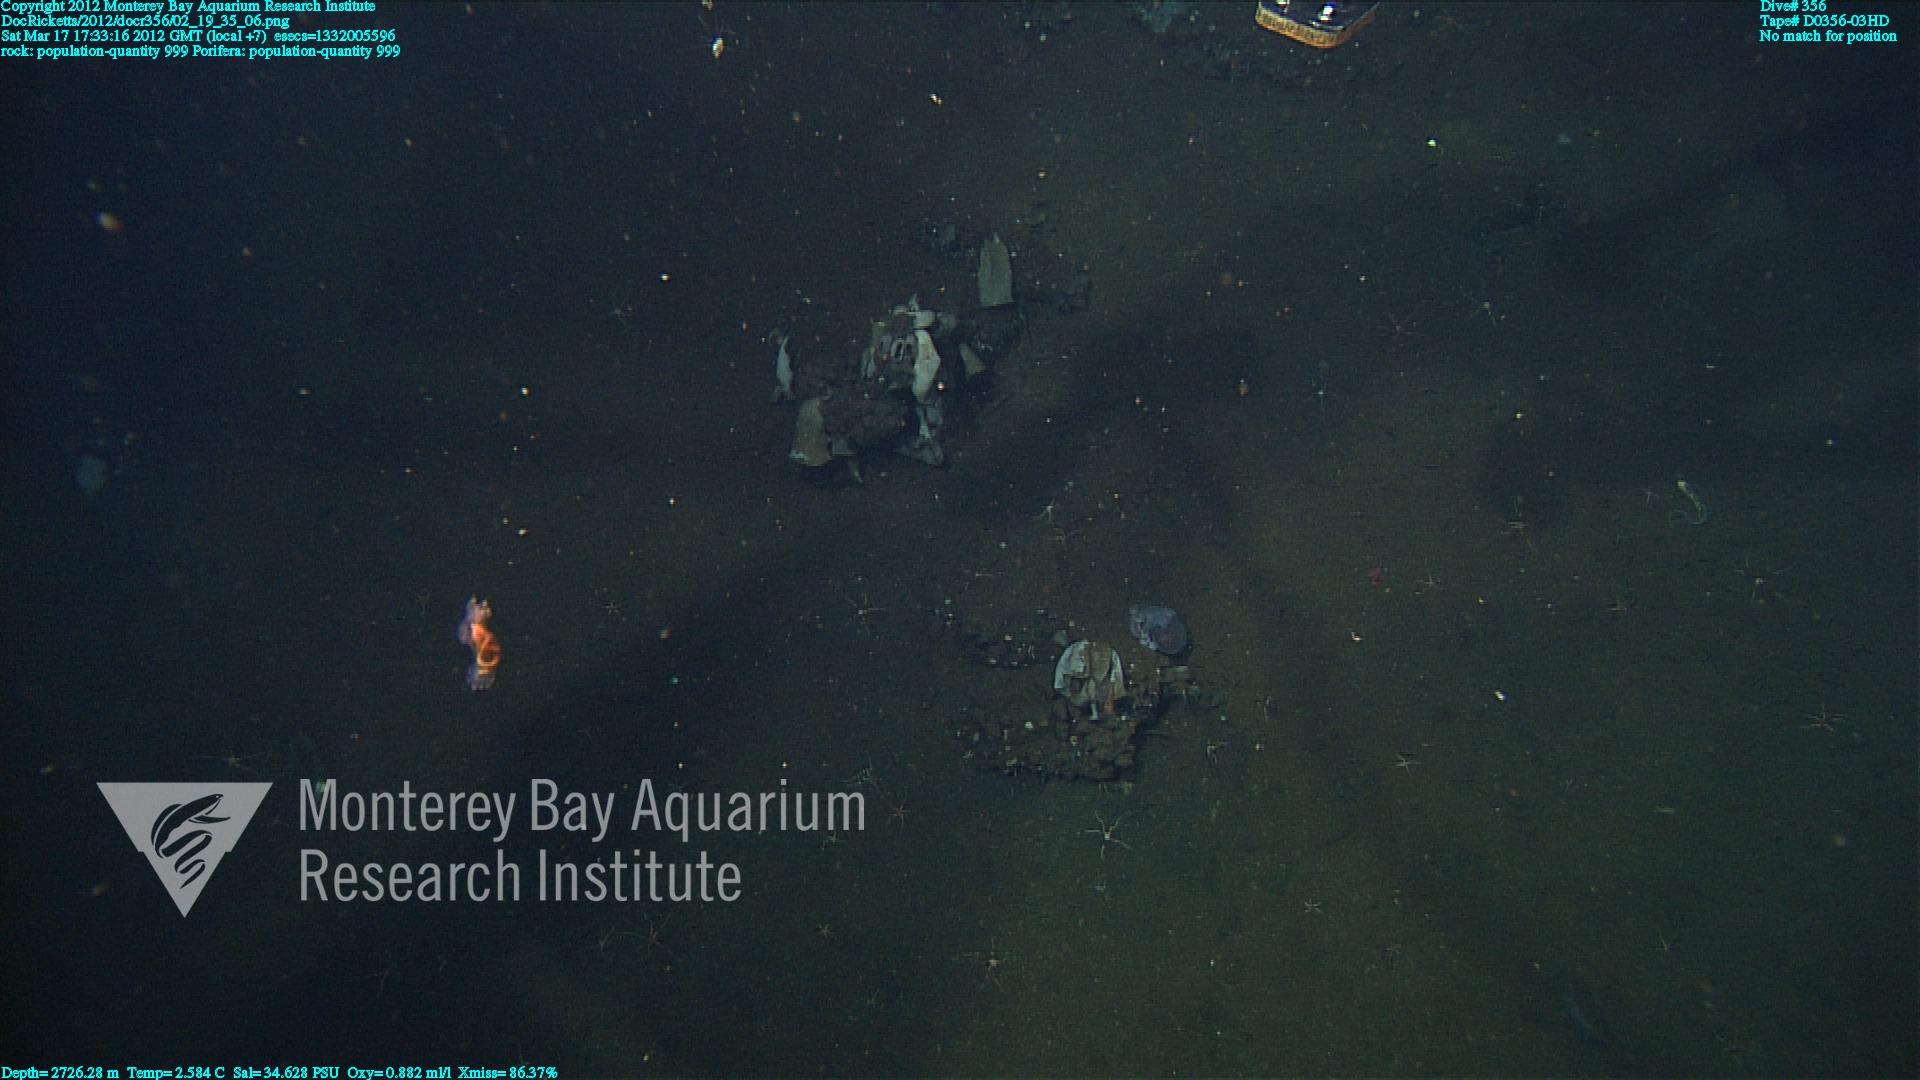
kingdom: Animalia
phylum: Porifera
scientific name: Porifera
